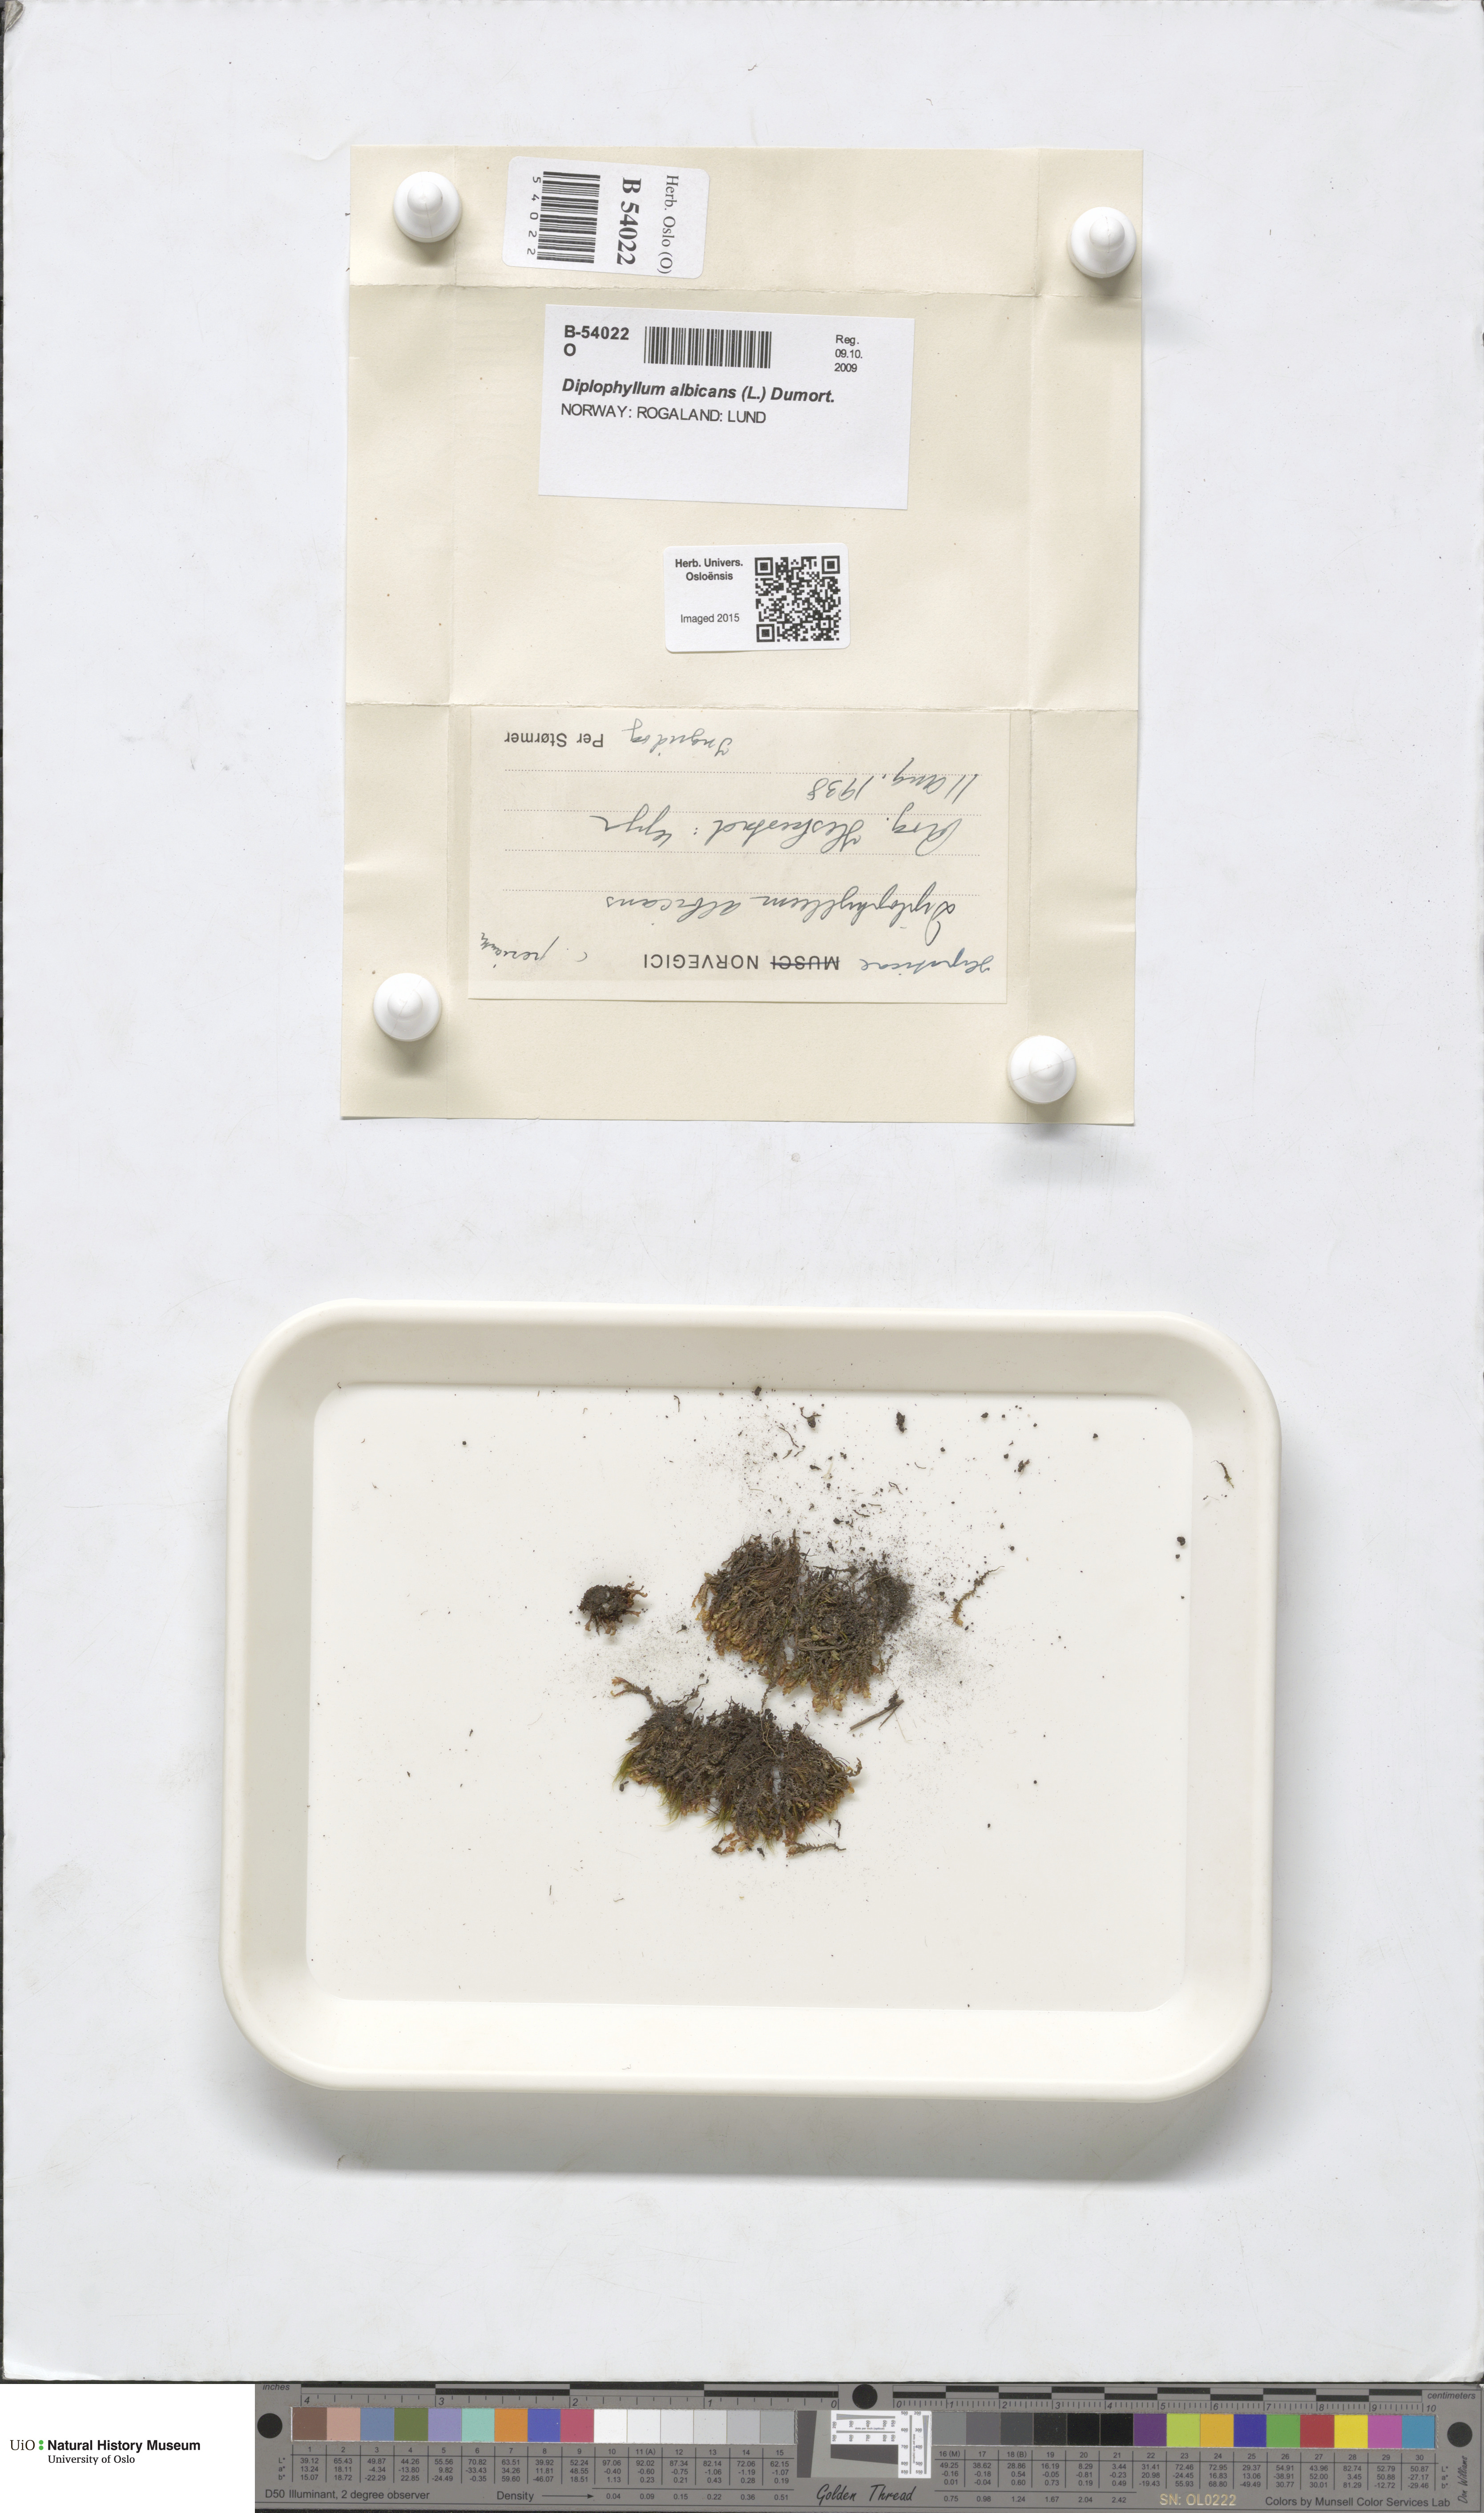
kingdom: Plantae
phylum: Marchantiophyta
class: Jungermanniopsida
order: Jungermanniales
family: Scapaniaceae
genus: Diplophyllum
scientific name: Diplophyllum albicans
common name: White earwort
